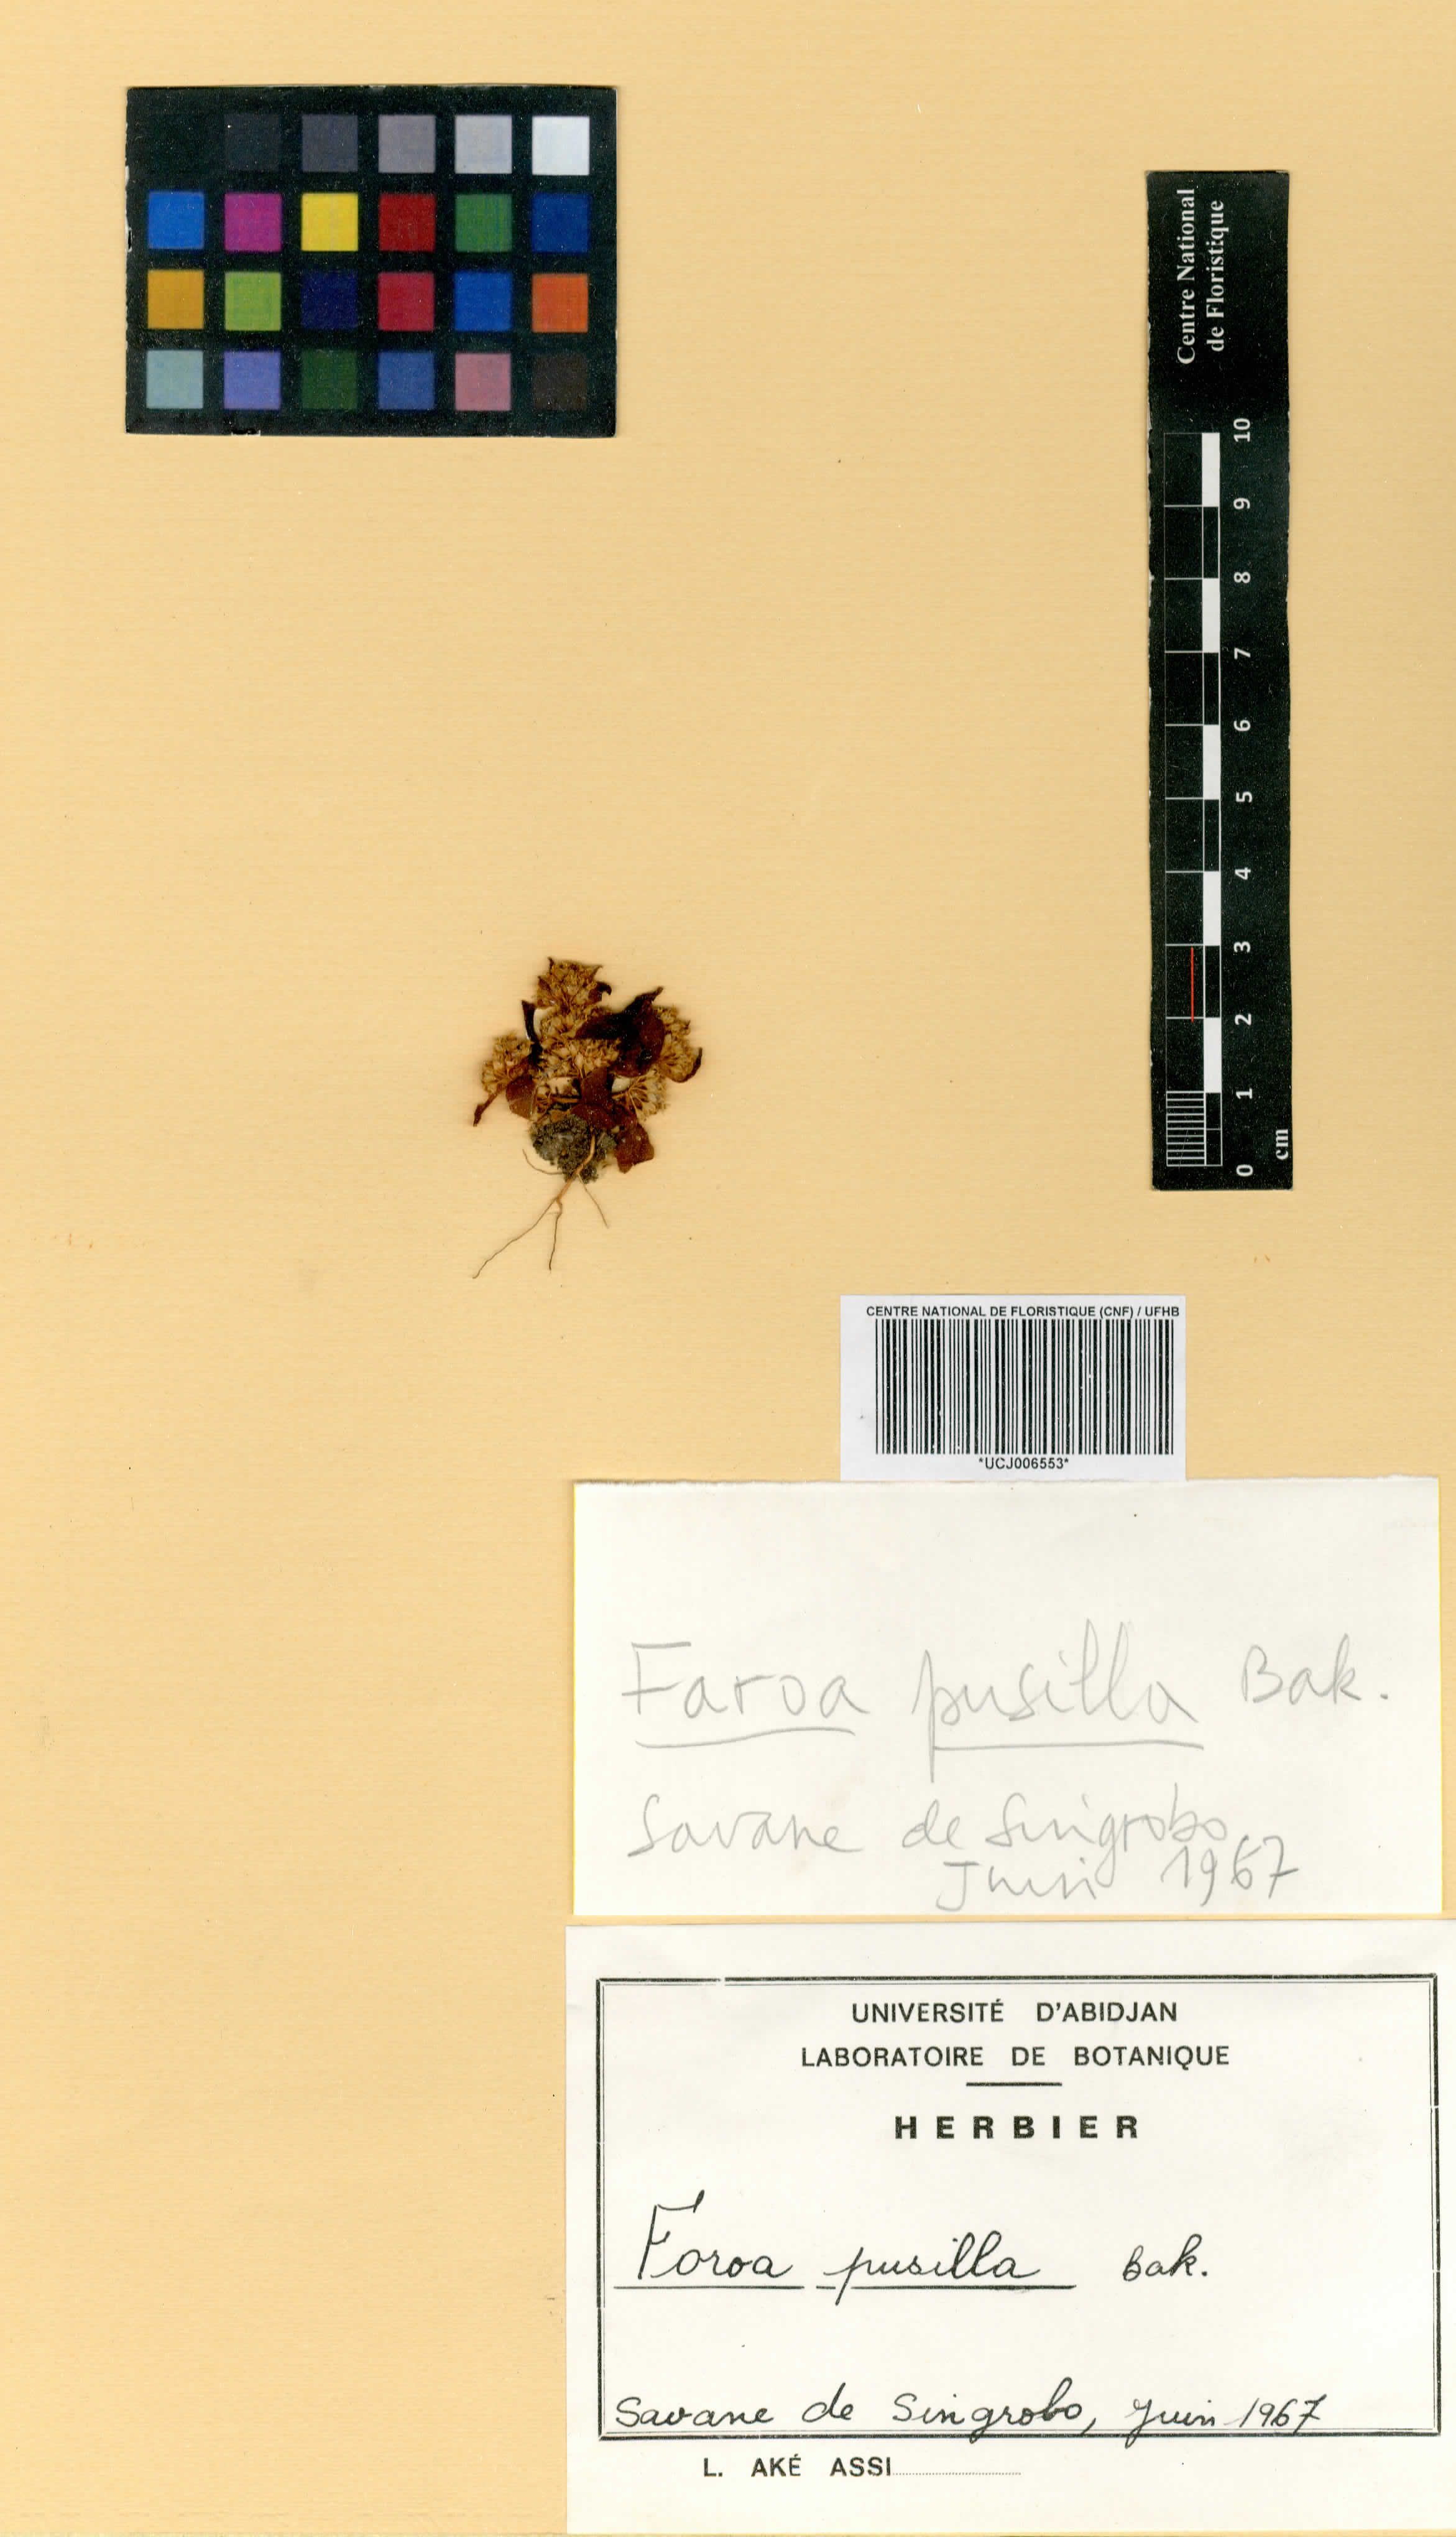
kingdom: Plantae
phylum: Tracheophyta
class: Magnoliopsida
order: Gentianales
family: Gentianaceae
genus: Faroa
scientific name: Faroa pusilla
